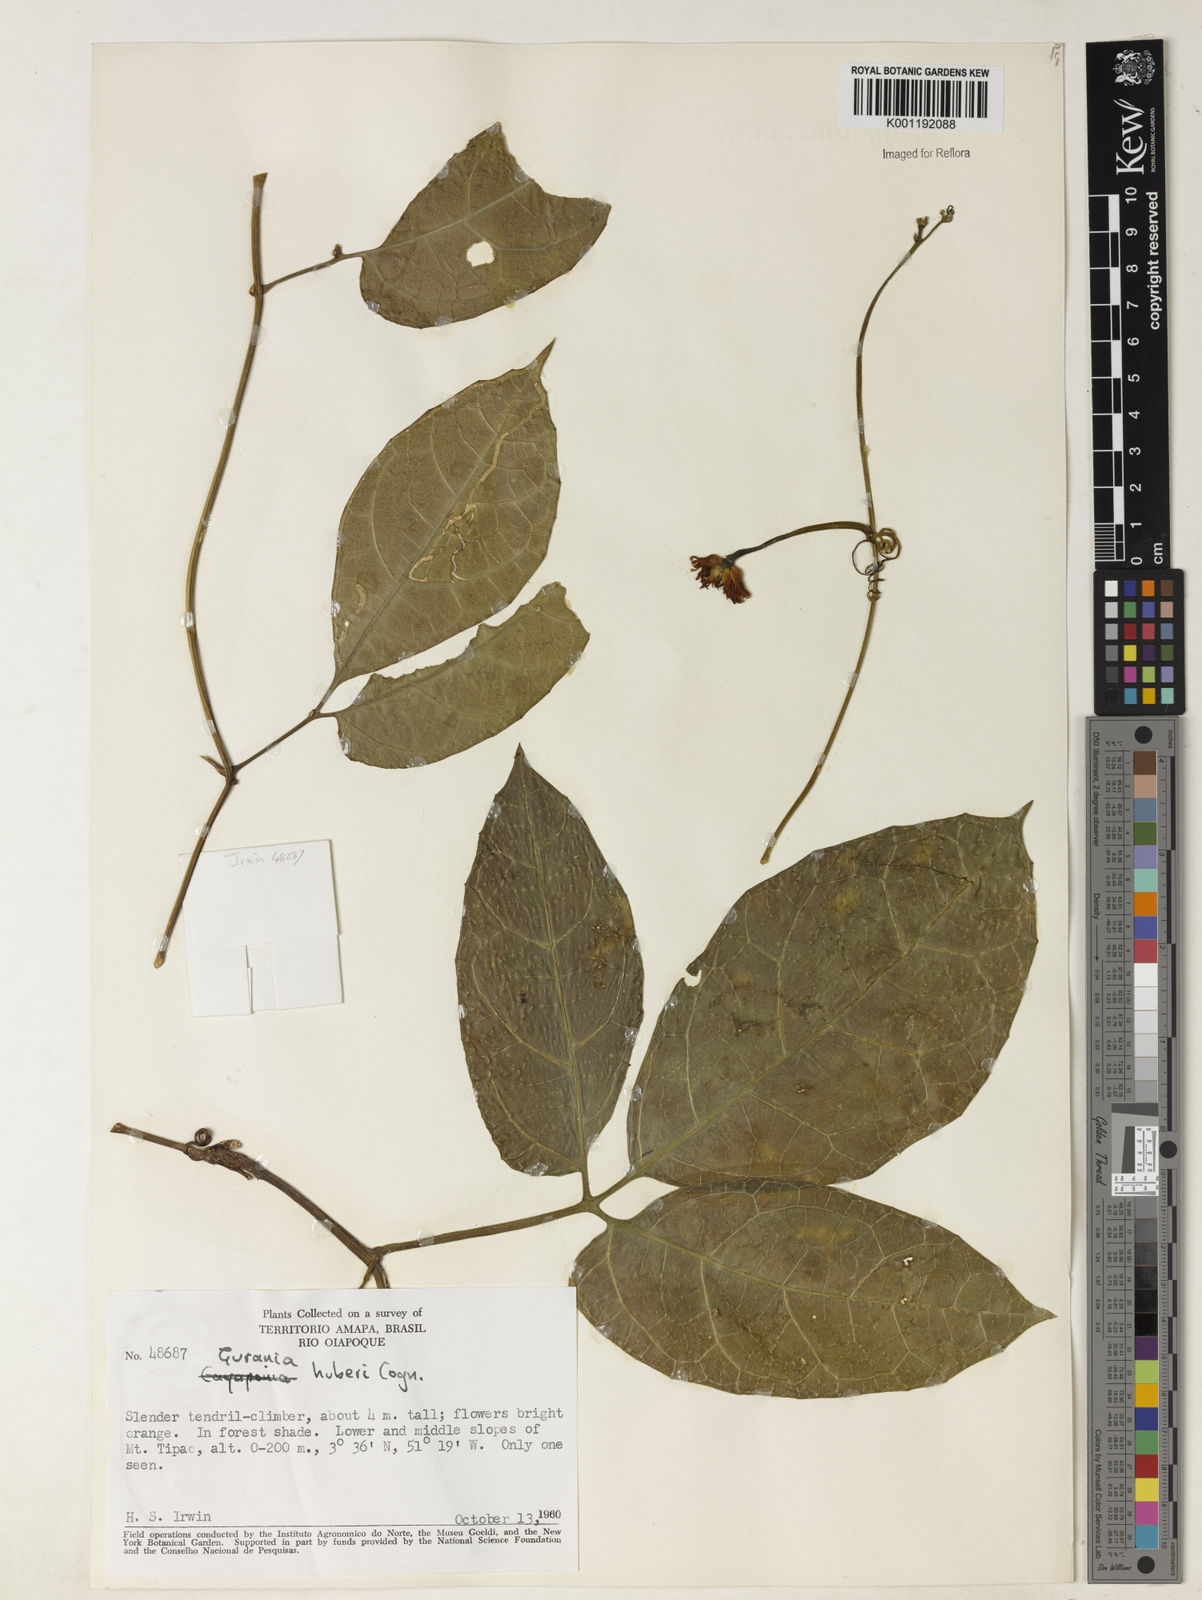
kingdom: Plantae
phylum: Tracheophyta
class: Magnoliopsida
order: Cucurbitales
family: Cucurbitaceae
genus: Gurania
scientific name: Gurania huberi
